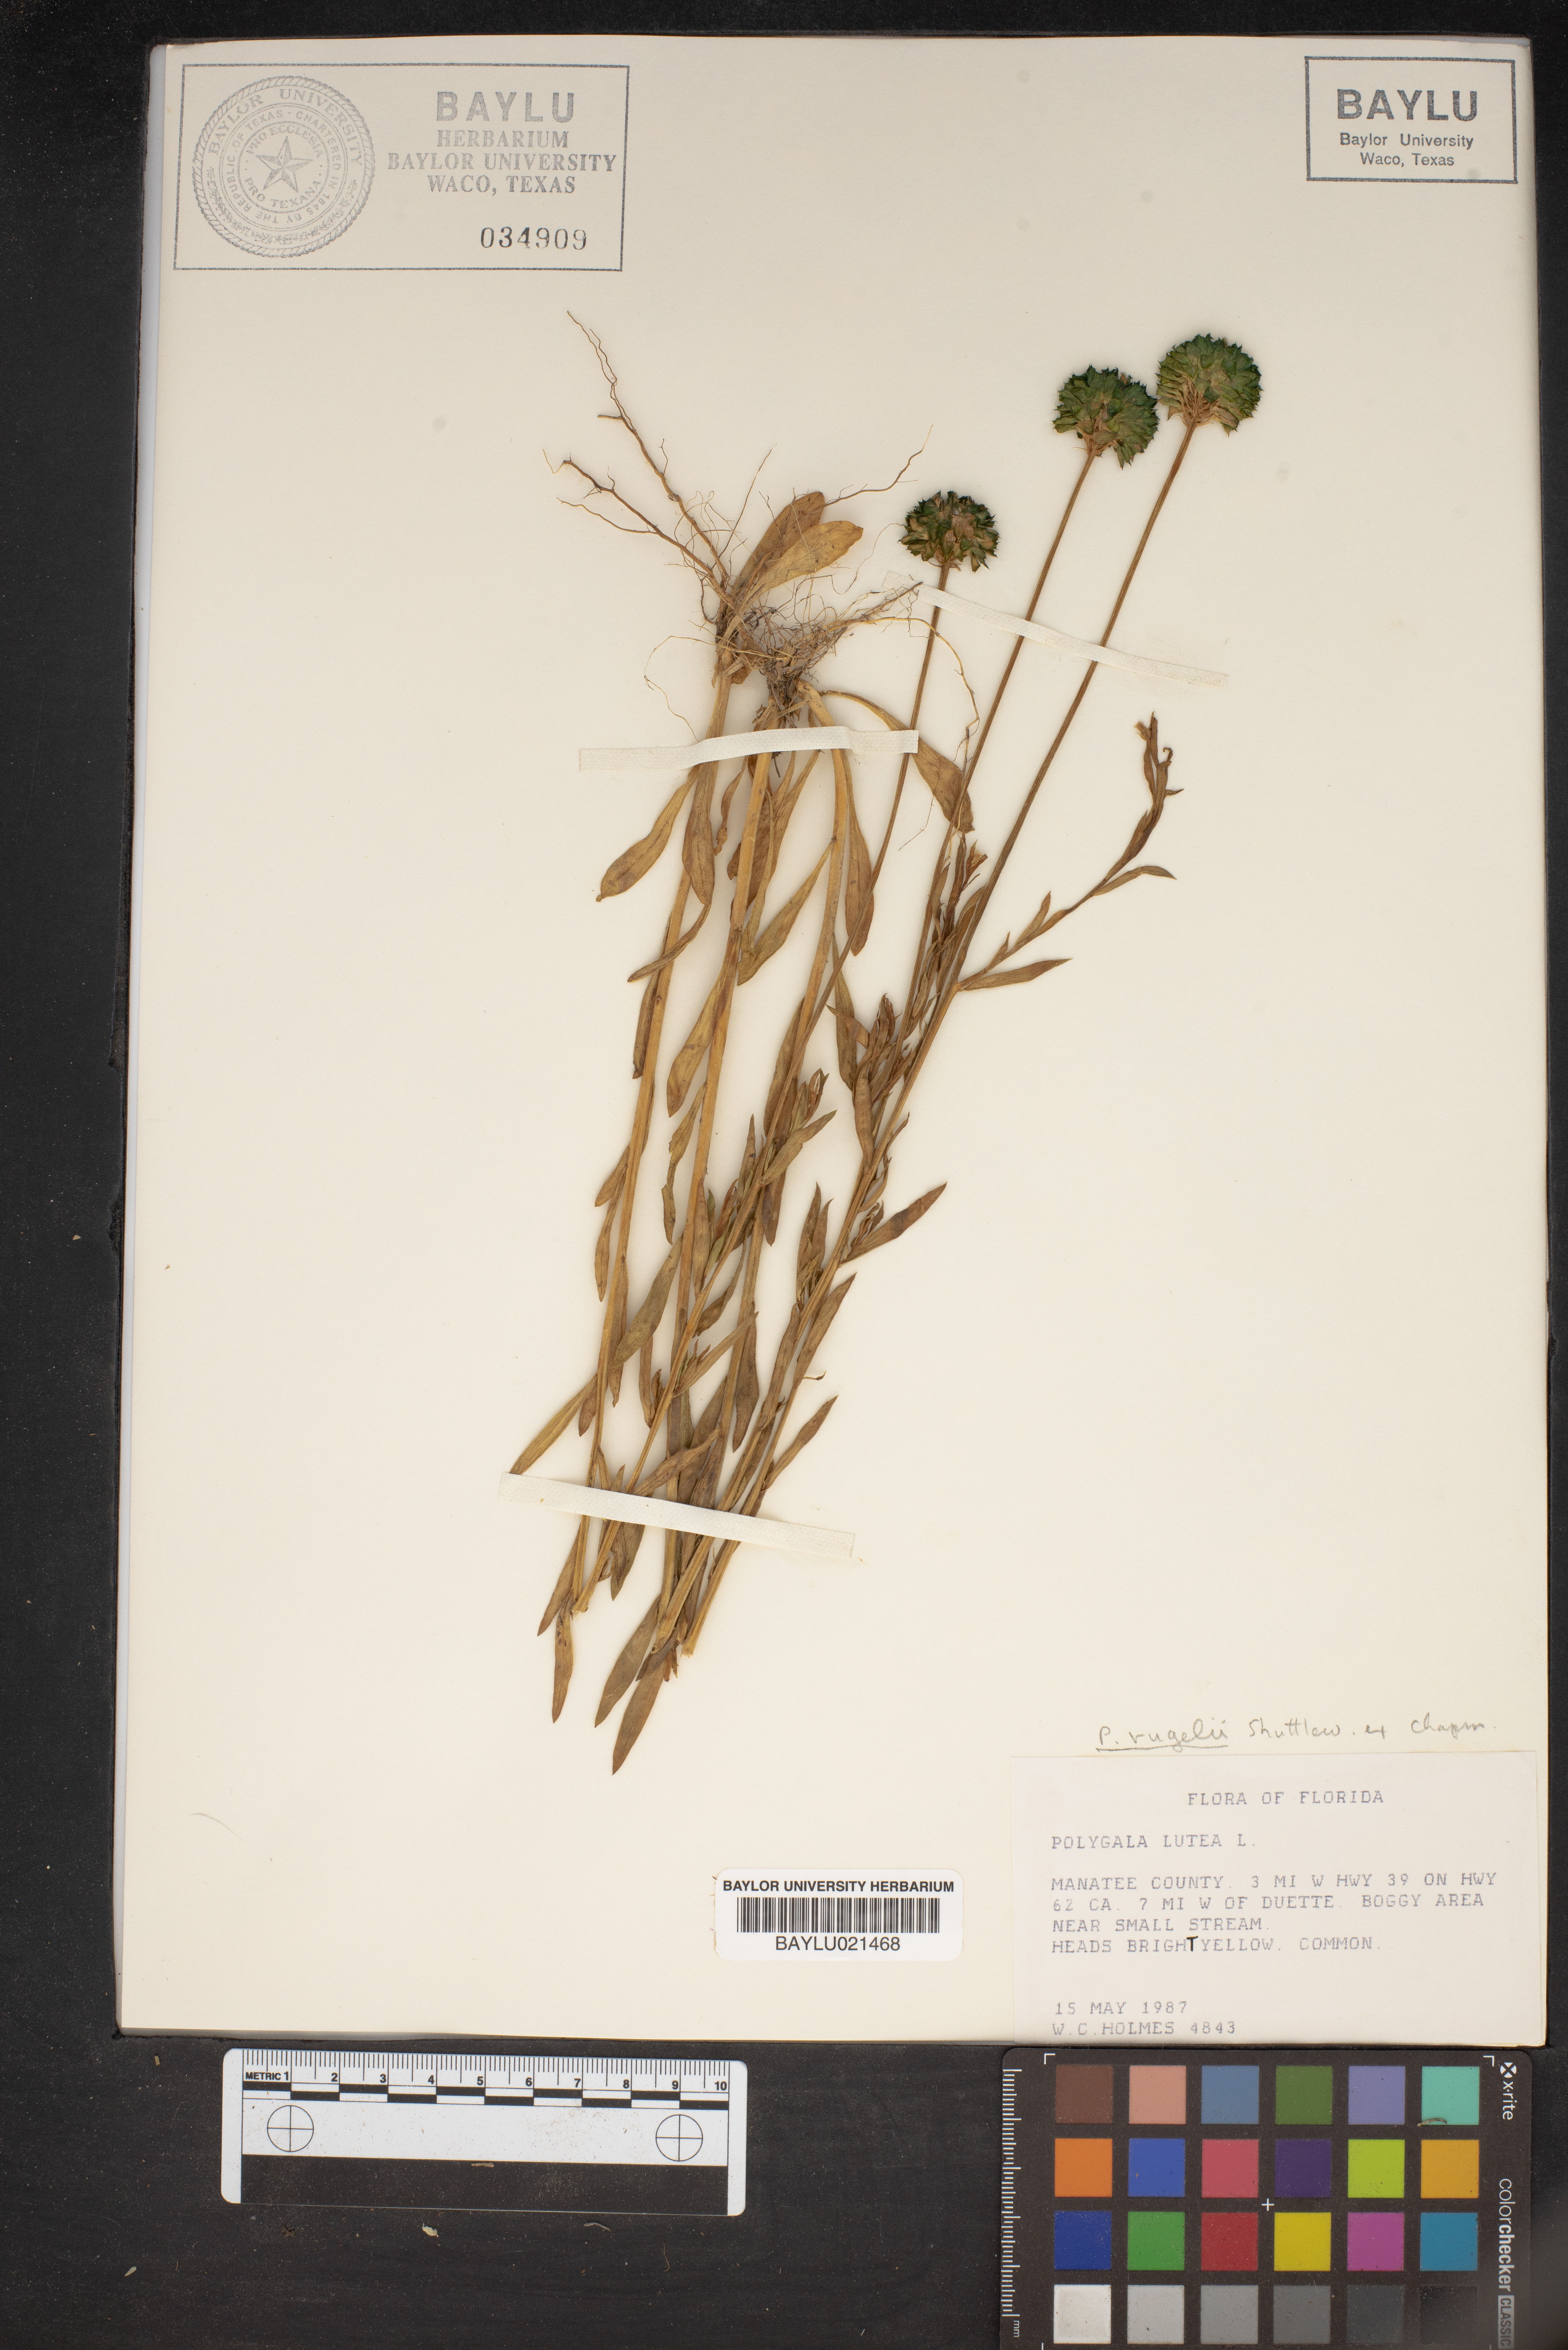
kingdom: Plantae
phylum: Tracheophyta
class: Magnoliopsida
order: Fabales
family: Polygalaceae
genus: Polygala
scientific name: Polygala lutea
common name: Orange milkwort
